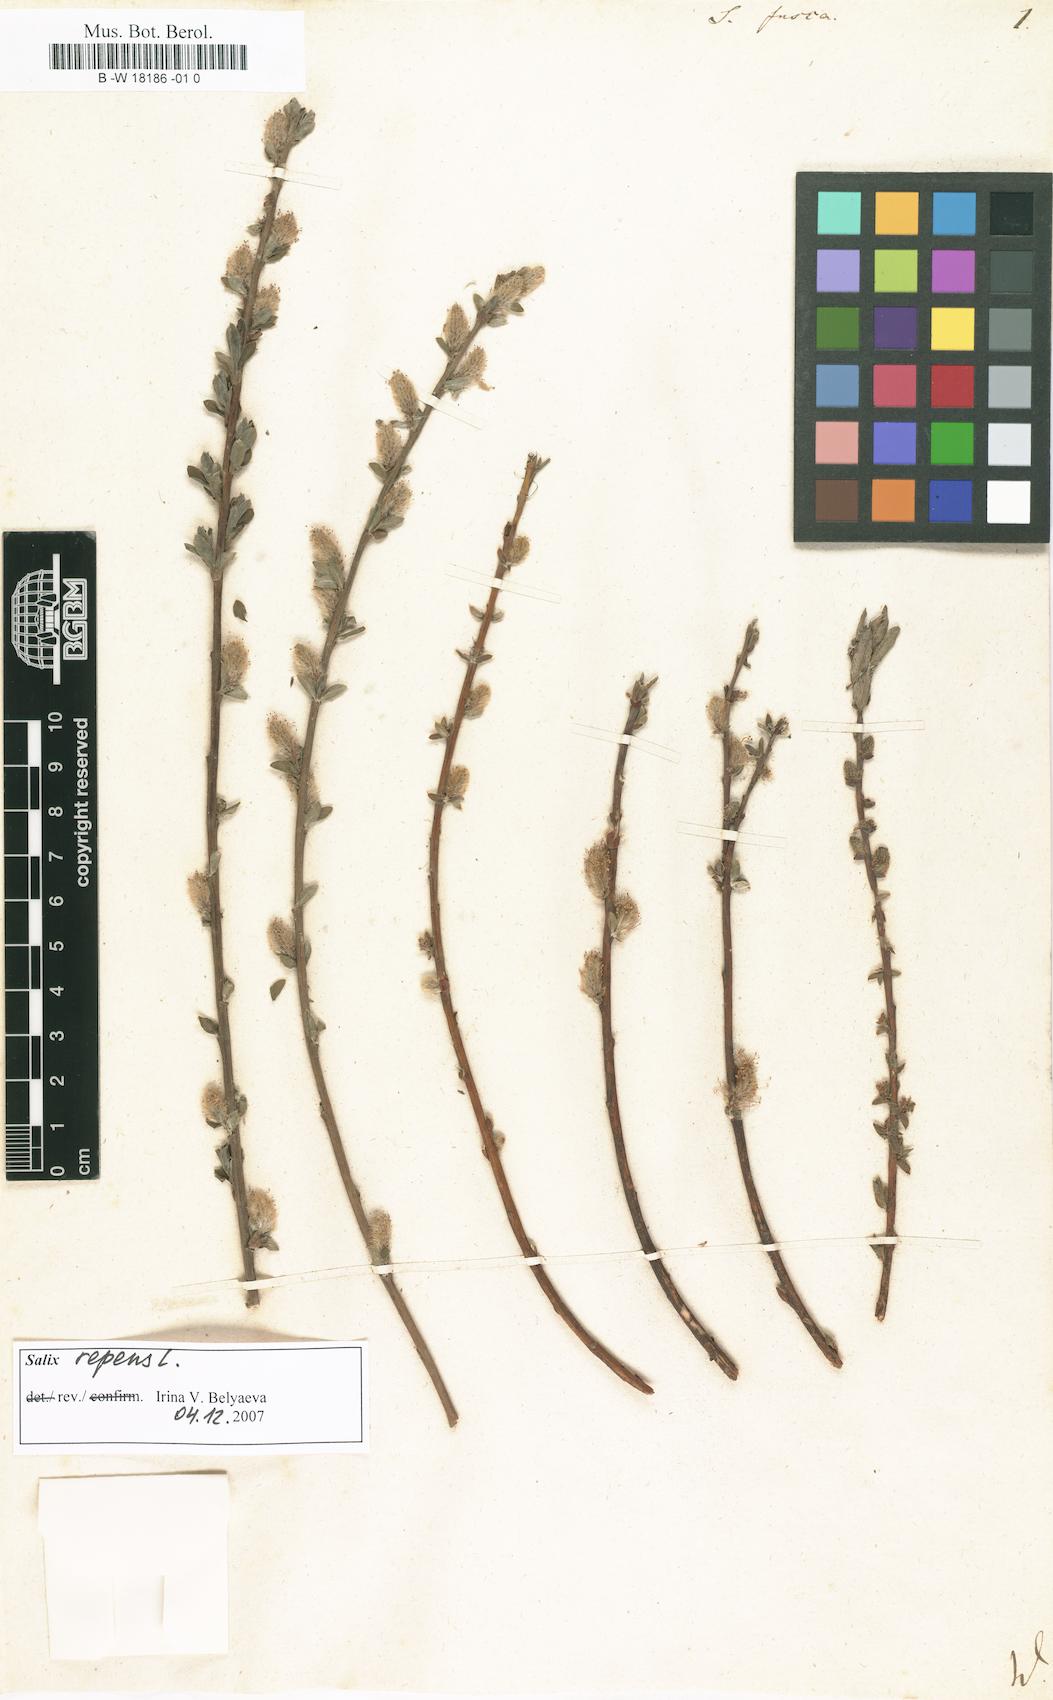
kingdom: Plantae
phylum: Tracheophyta
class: Magnoliopsida
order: Malpighiales
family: Salicaceae
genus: Salix
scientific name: Salix repens
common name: Creeping willow
